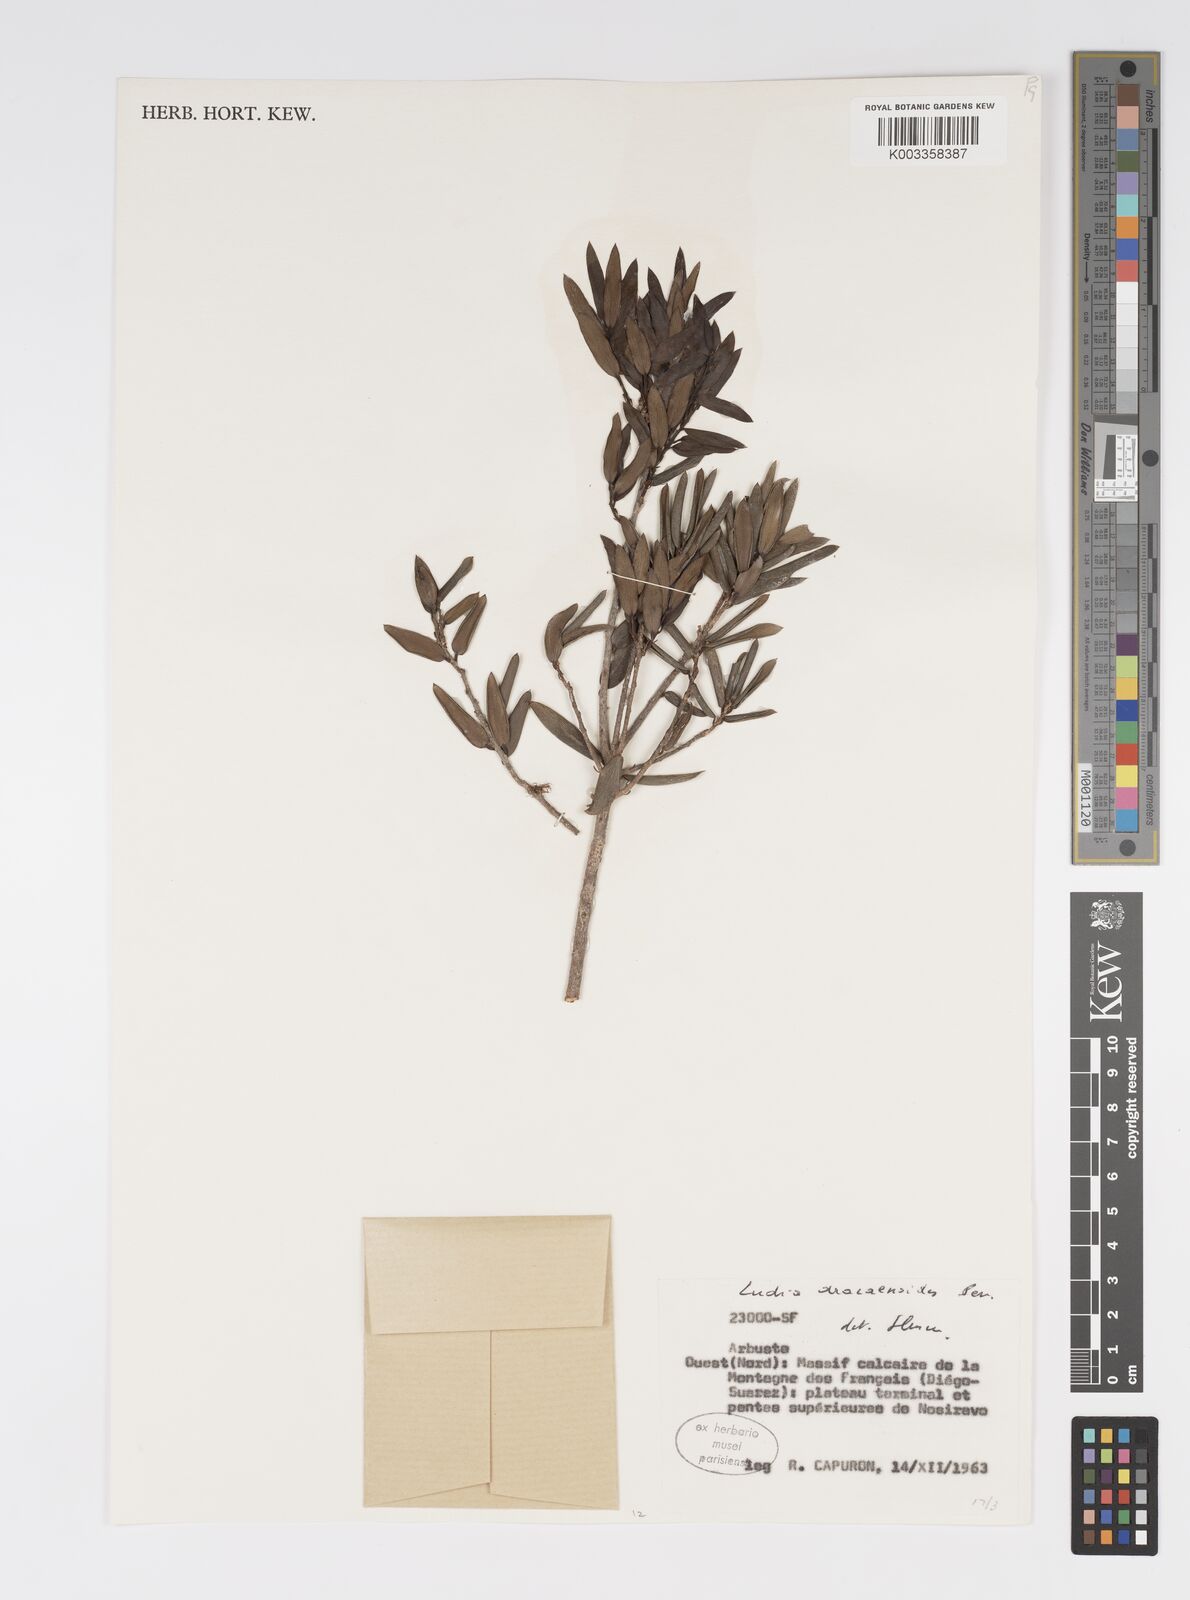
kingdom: Plantae
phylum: Tracheophyta
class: Magnoliopsida
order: Malpighiales
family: Salicaceae
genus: Ludia
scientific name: Ludia dracaenoides
